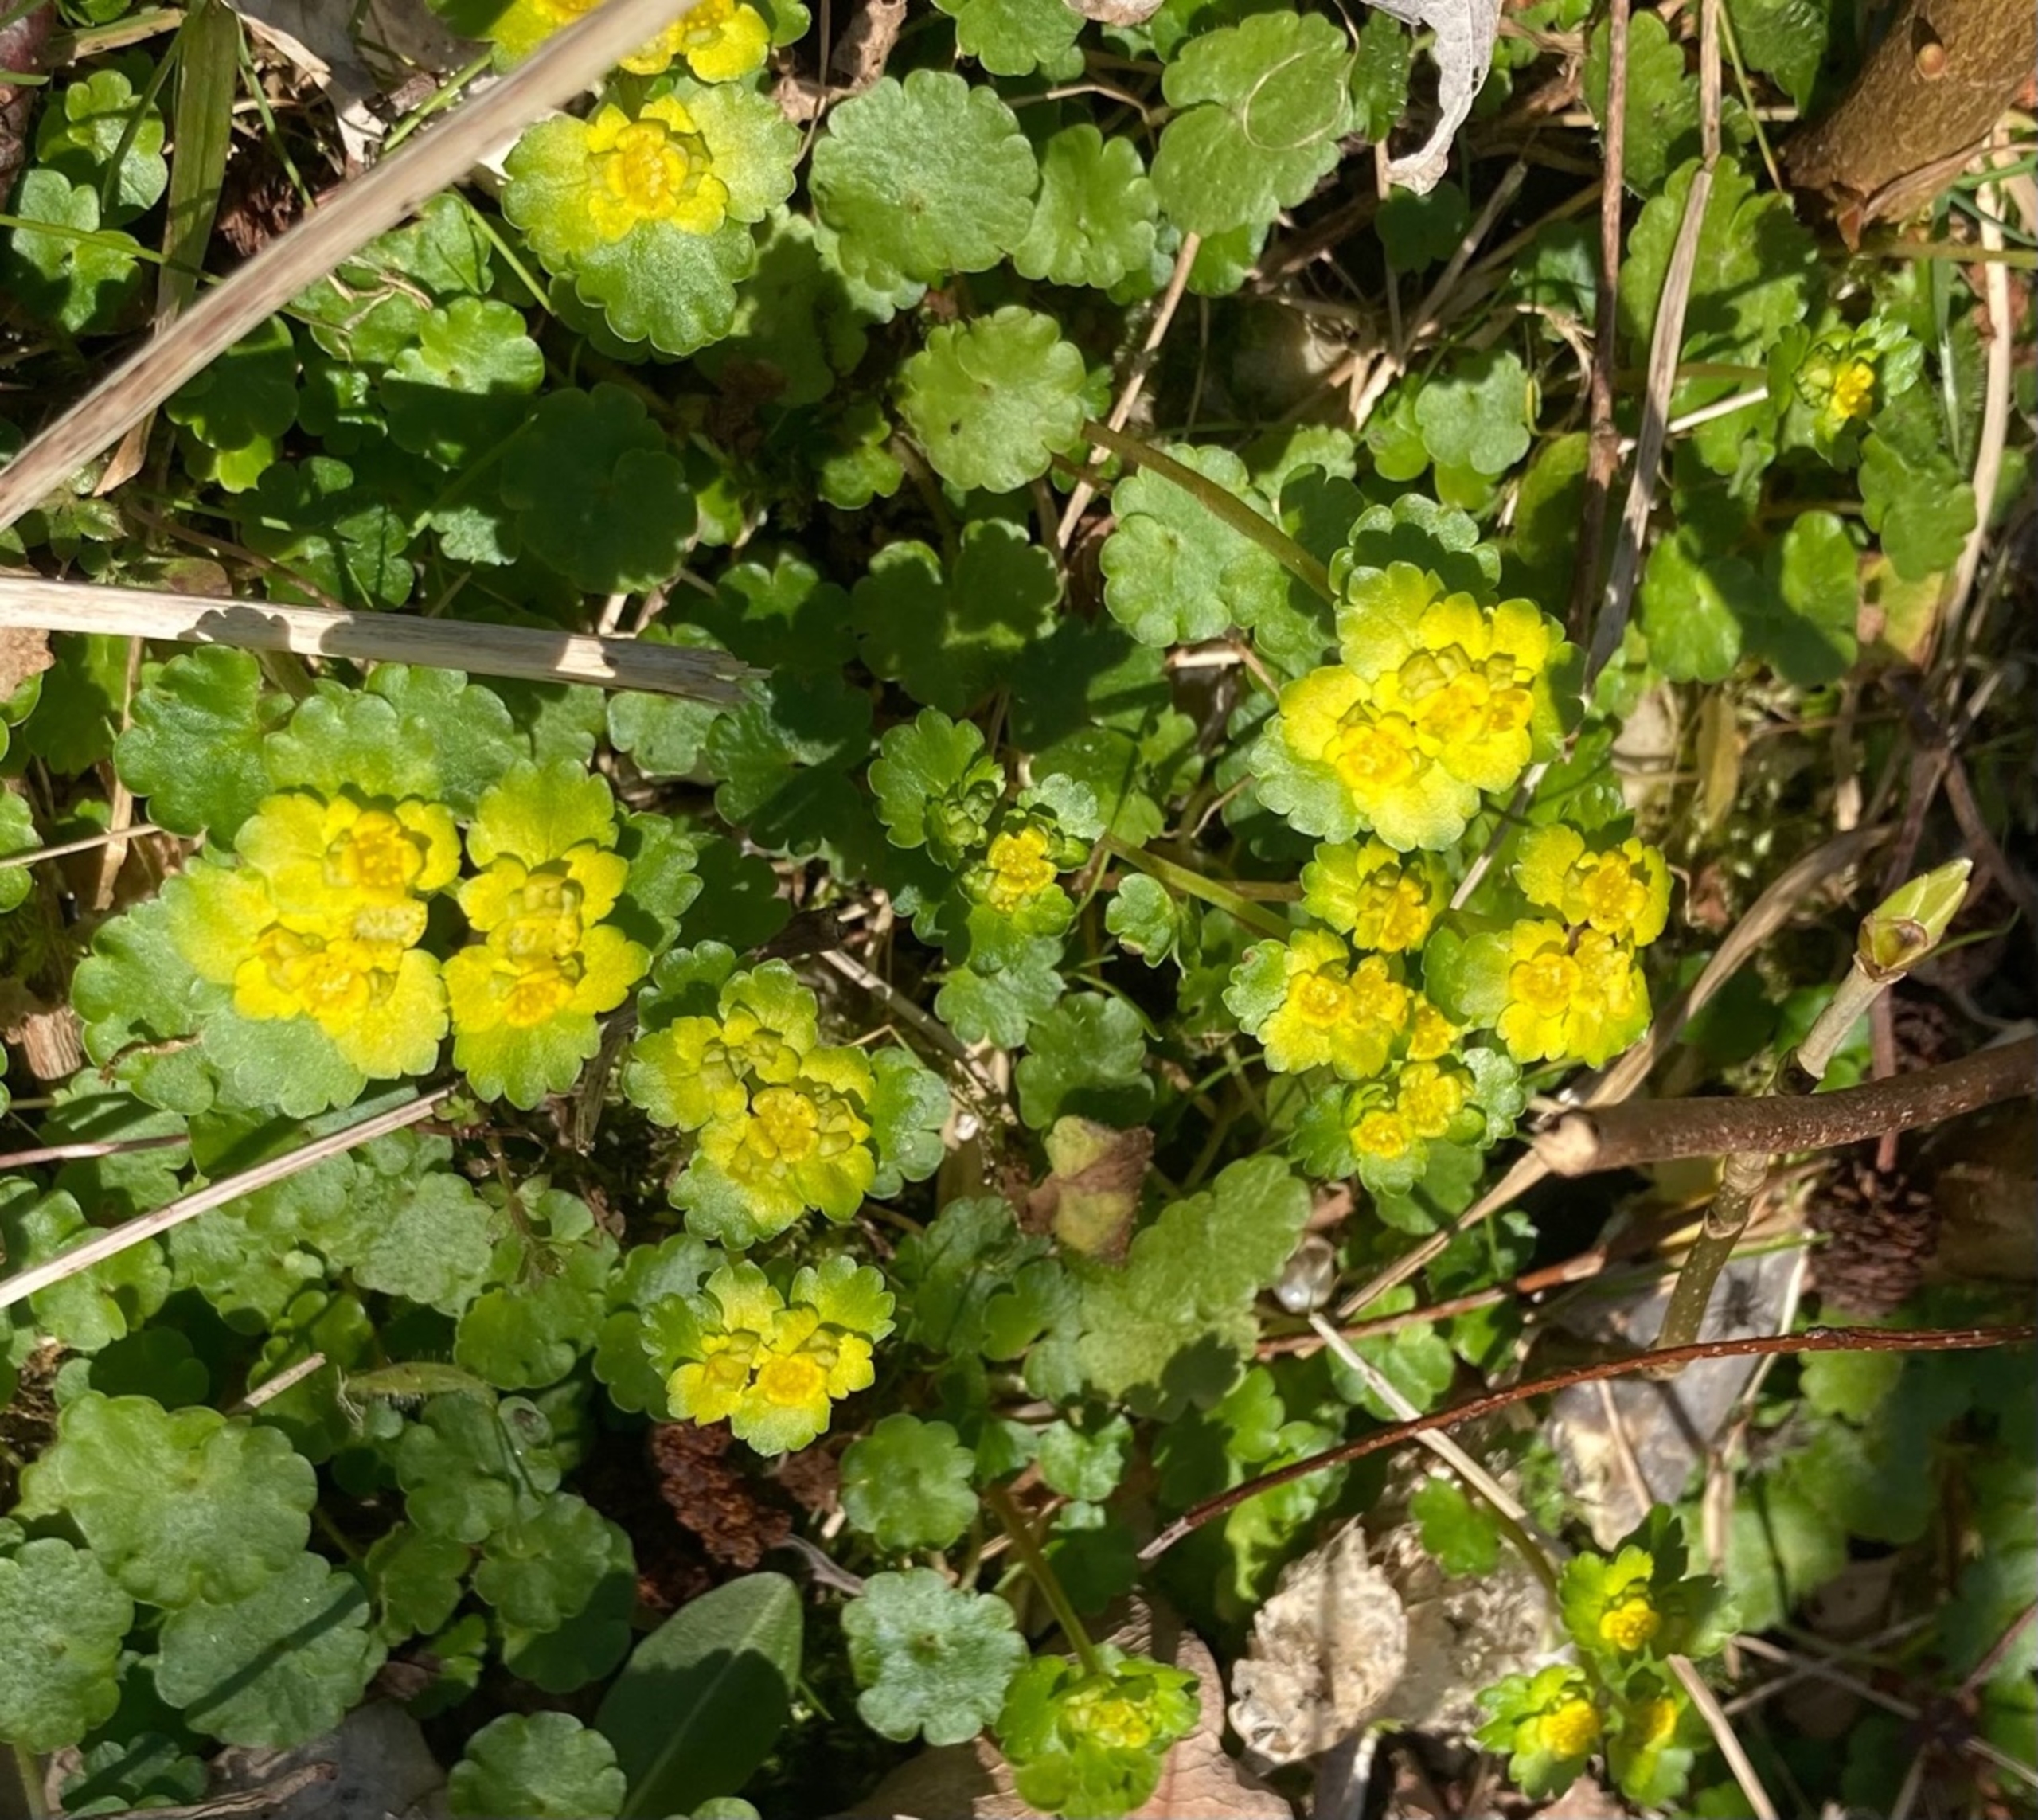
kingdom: Plantae
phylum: Tracheophyta
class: Magnoliopsida
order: Saxifragales
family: Saxifragaceae
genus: Chrysosplenium
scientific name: Chrysosplenium alternifolium
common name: Almindelig milturt
